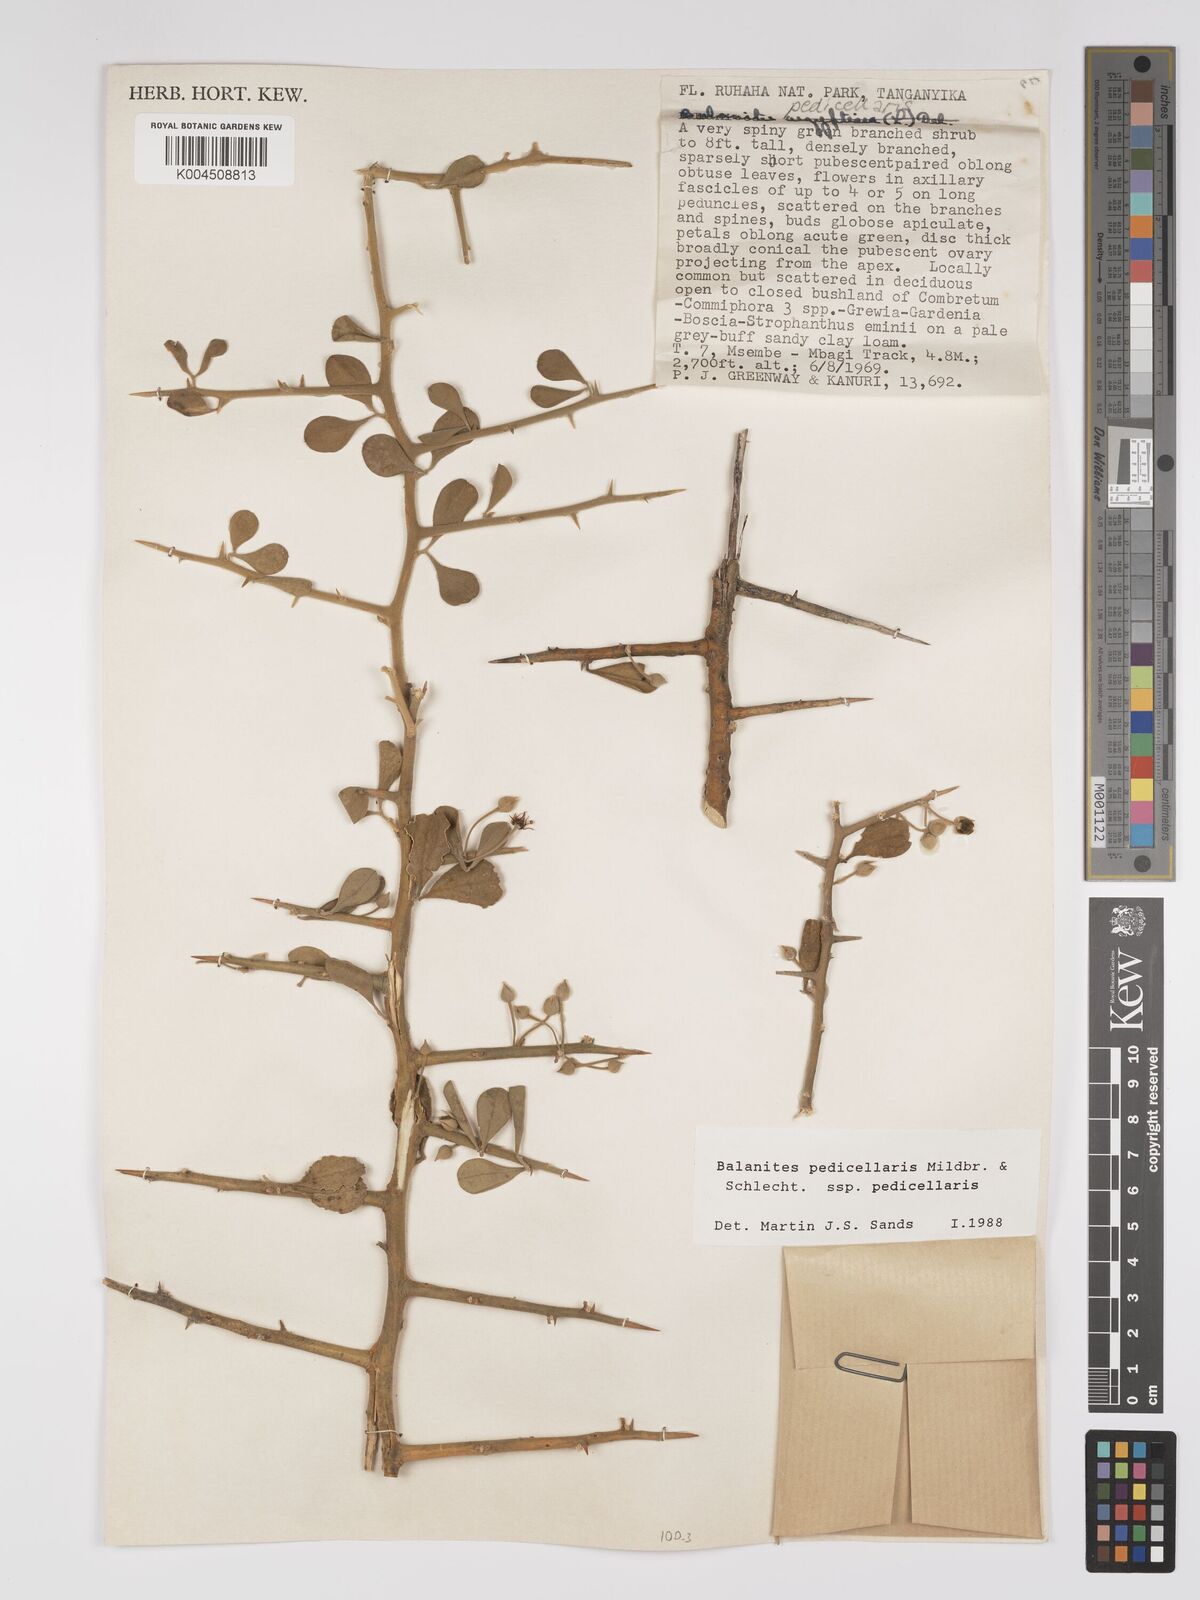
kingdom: Plantae
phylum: Tracheophyta
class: Magnoliopsida
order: Zygophyllales
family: Zygophyllaceae
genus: Balanites
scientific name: Balanites pedicellaris
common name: Small green-thorn
